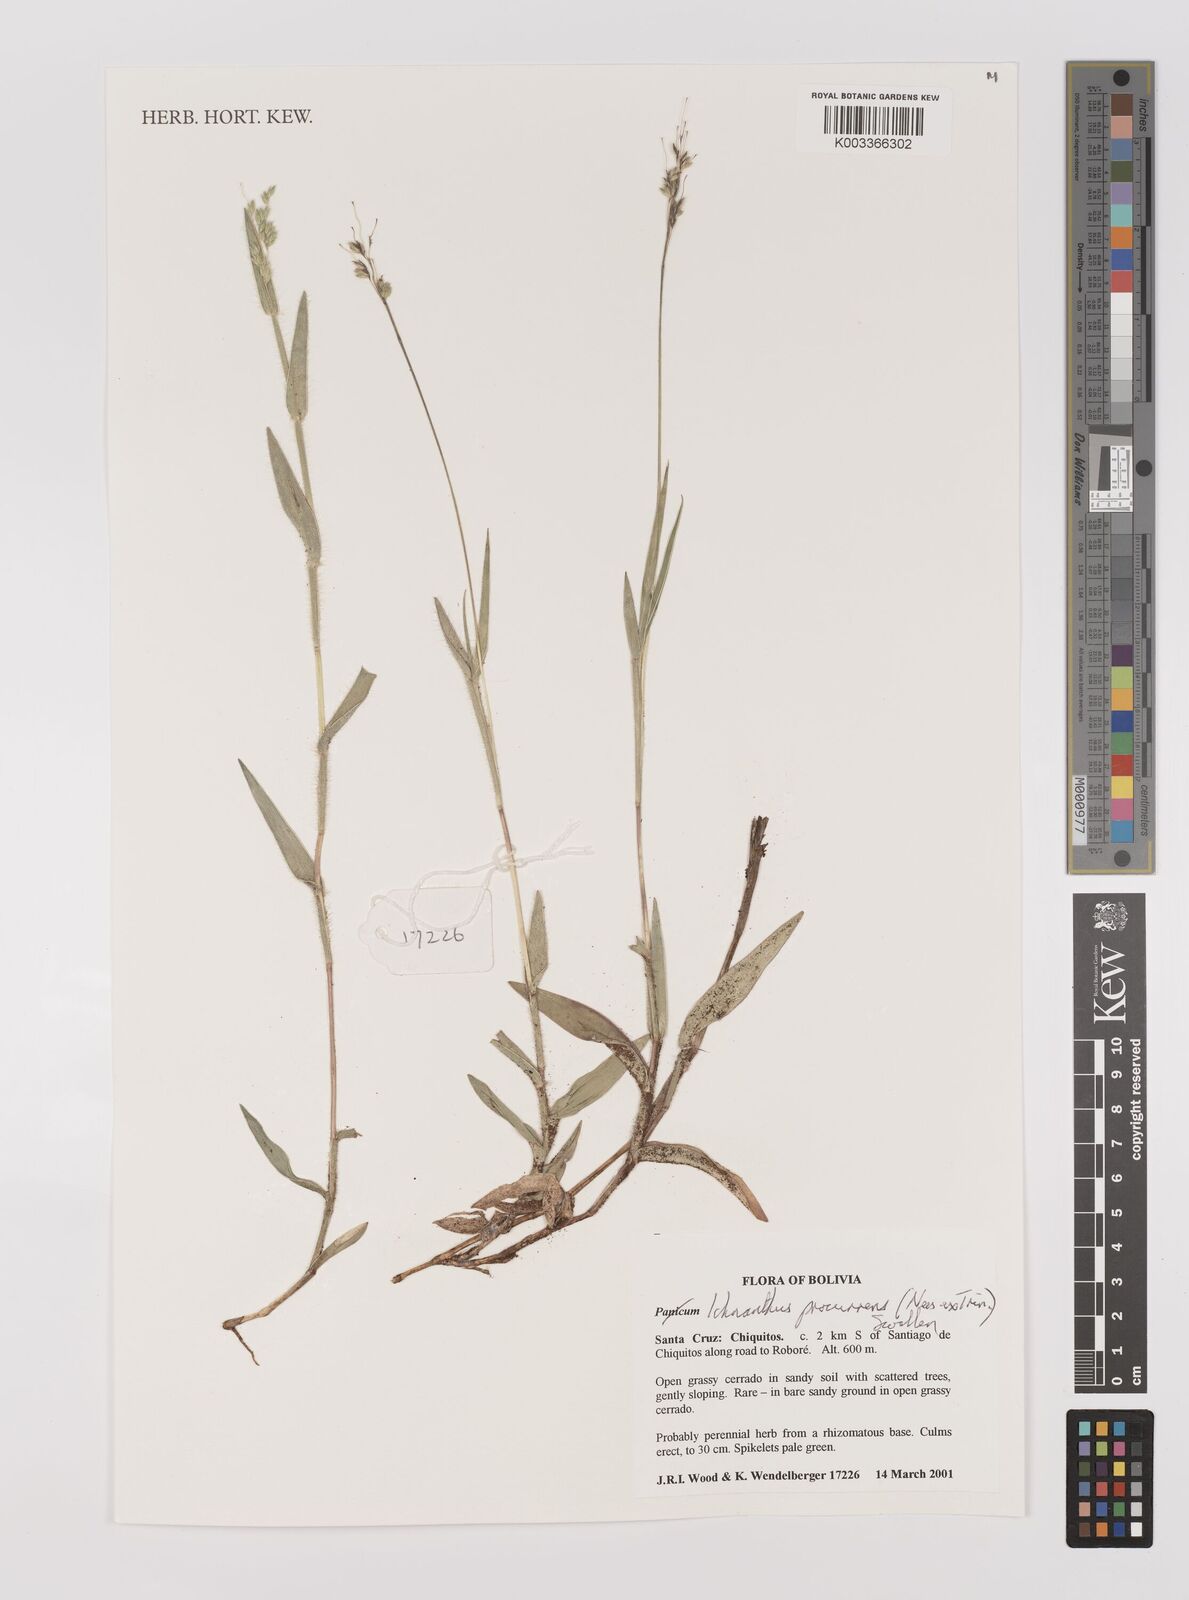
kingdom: Plantae
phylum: Tracheophyta
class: Liliopsida
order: Poales
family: Poaceae
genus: Oedochloa
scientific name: Oedochloa procurrens
